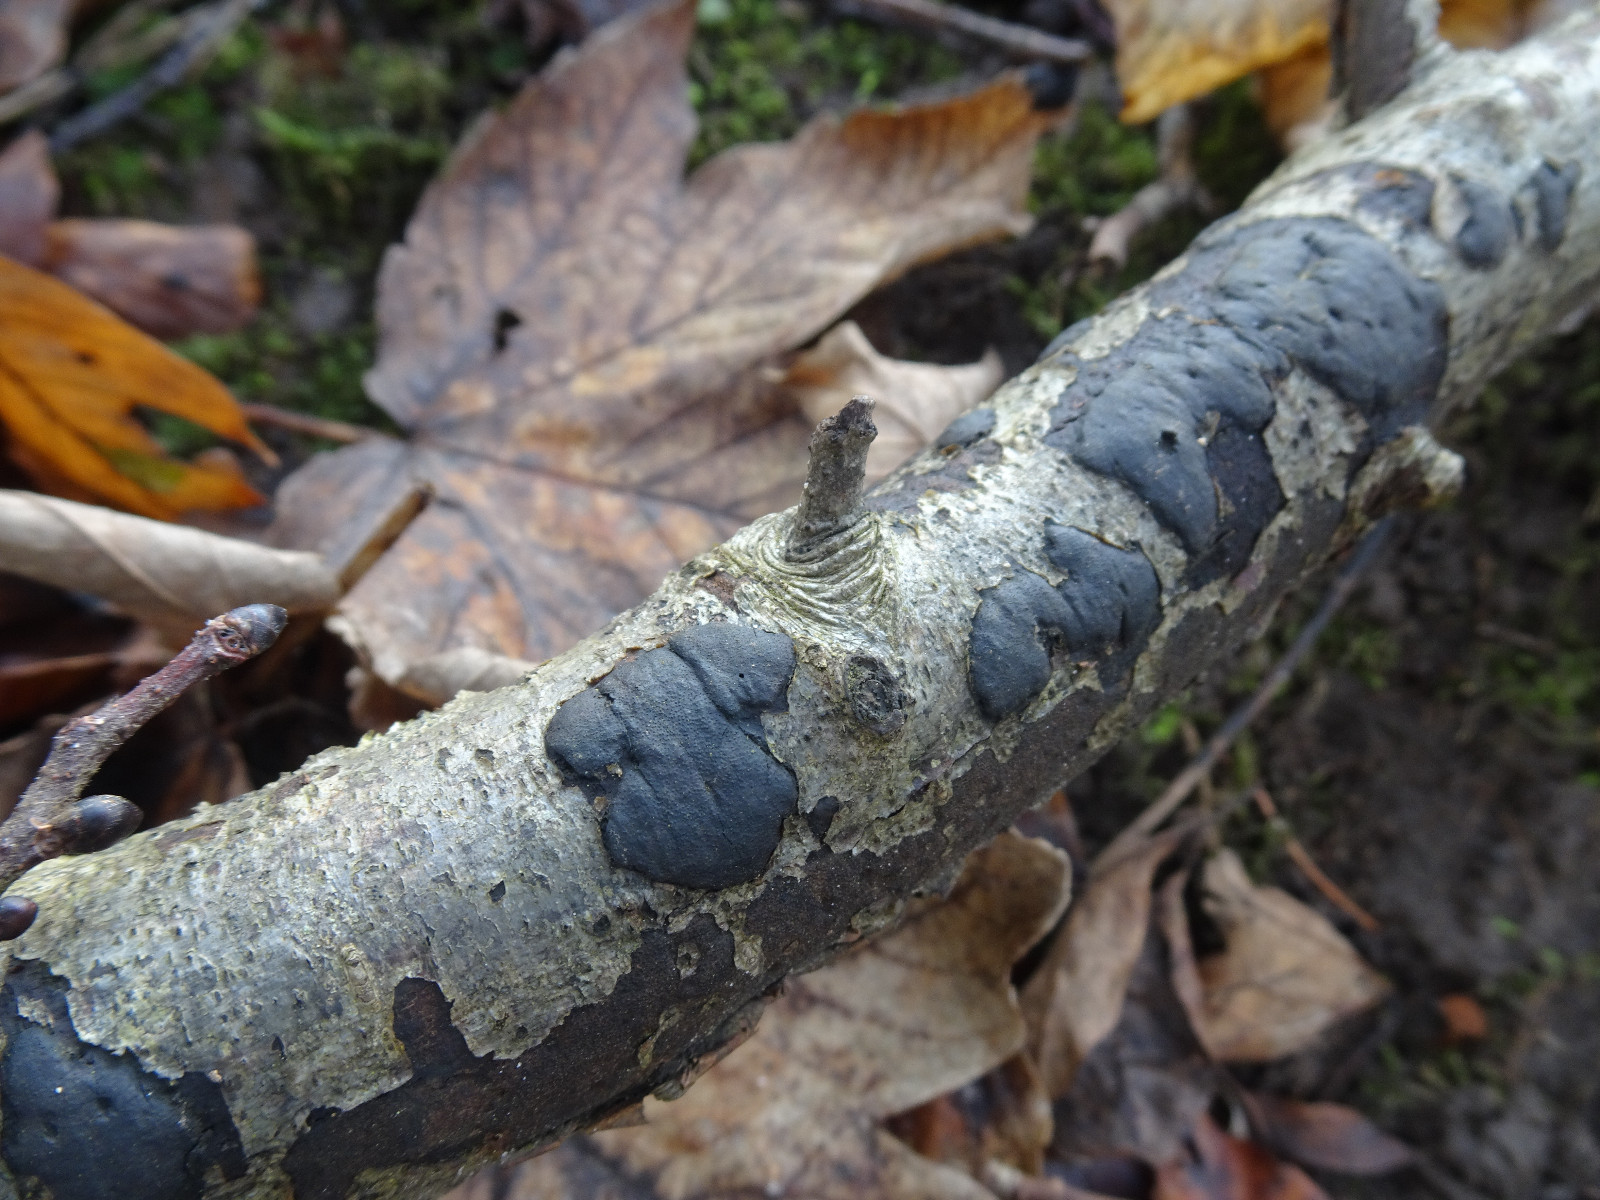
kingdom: Fungi
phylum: Ascomycota
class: Sordariomycetes
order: Xylariales
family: Diatrypaceae
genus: Diatrype
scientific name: Diatrype
